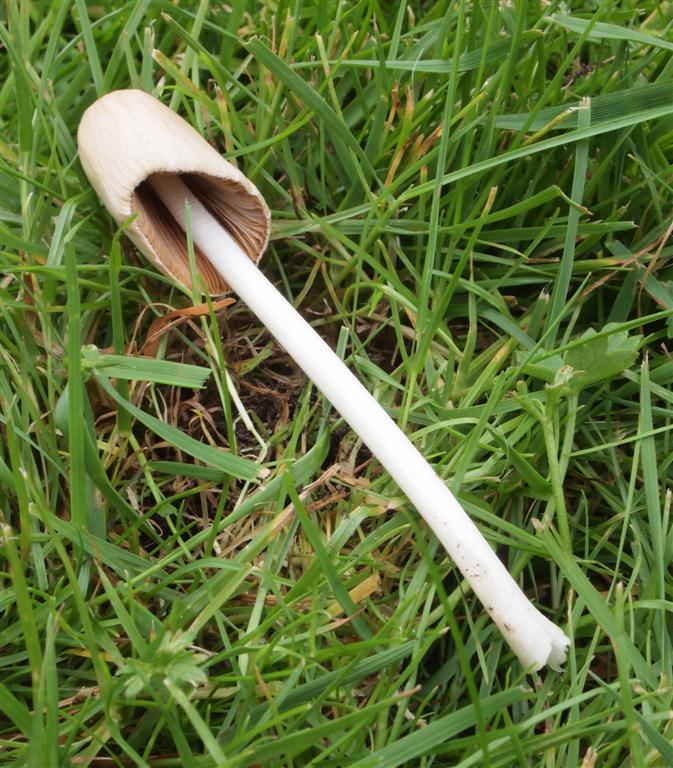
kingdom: Fungi
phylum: Basidiomycota
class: Agaricomycetes
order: Agaricales
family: Bolbitiaceae
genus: Conocybe
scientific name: Conocybe apala
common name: mælkehvid keglehat
